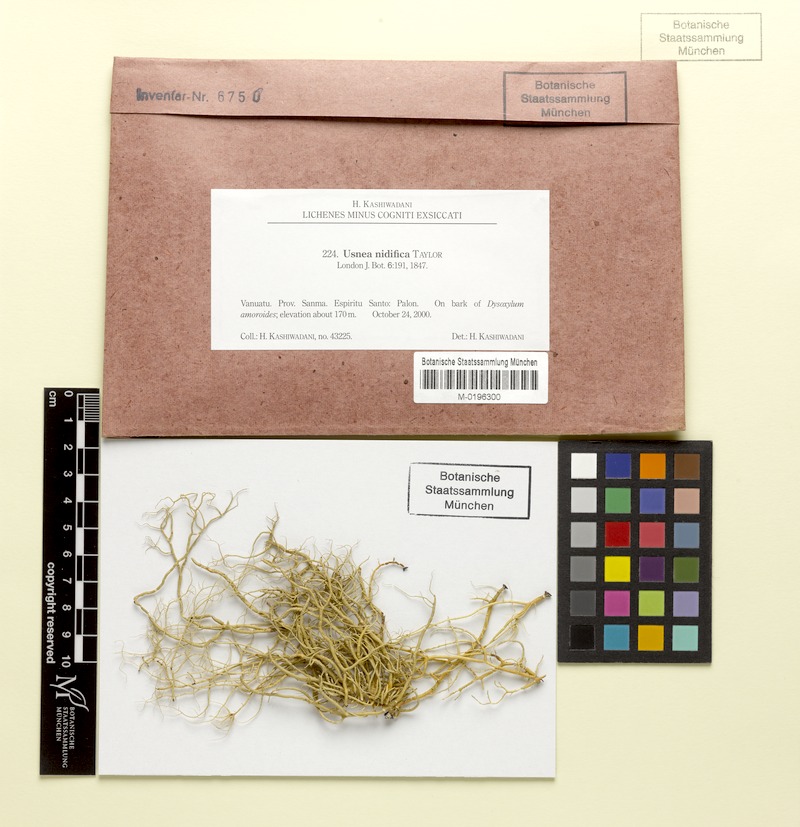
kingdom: Fungi
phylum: Ascomycota
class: Lecanoromycetes
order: Lecanorales
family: Parmeliaceae
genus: Usnea
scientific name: Usnea nidifica
